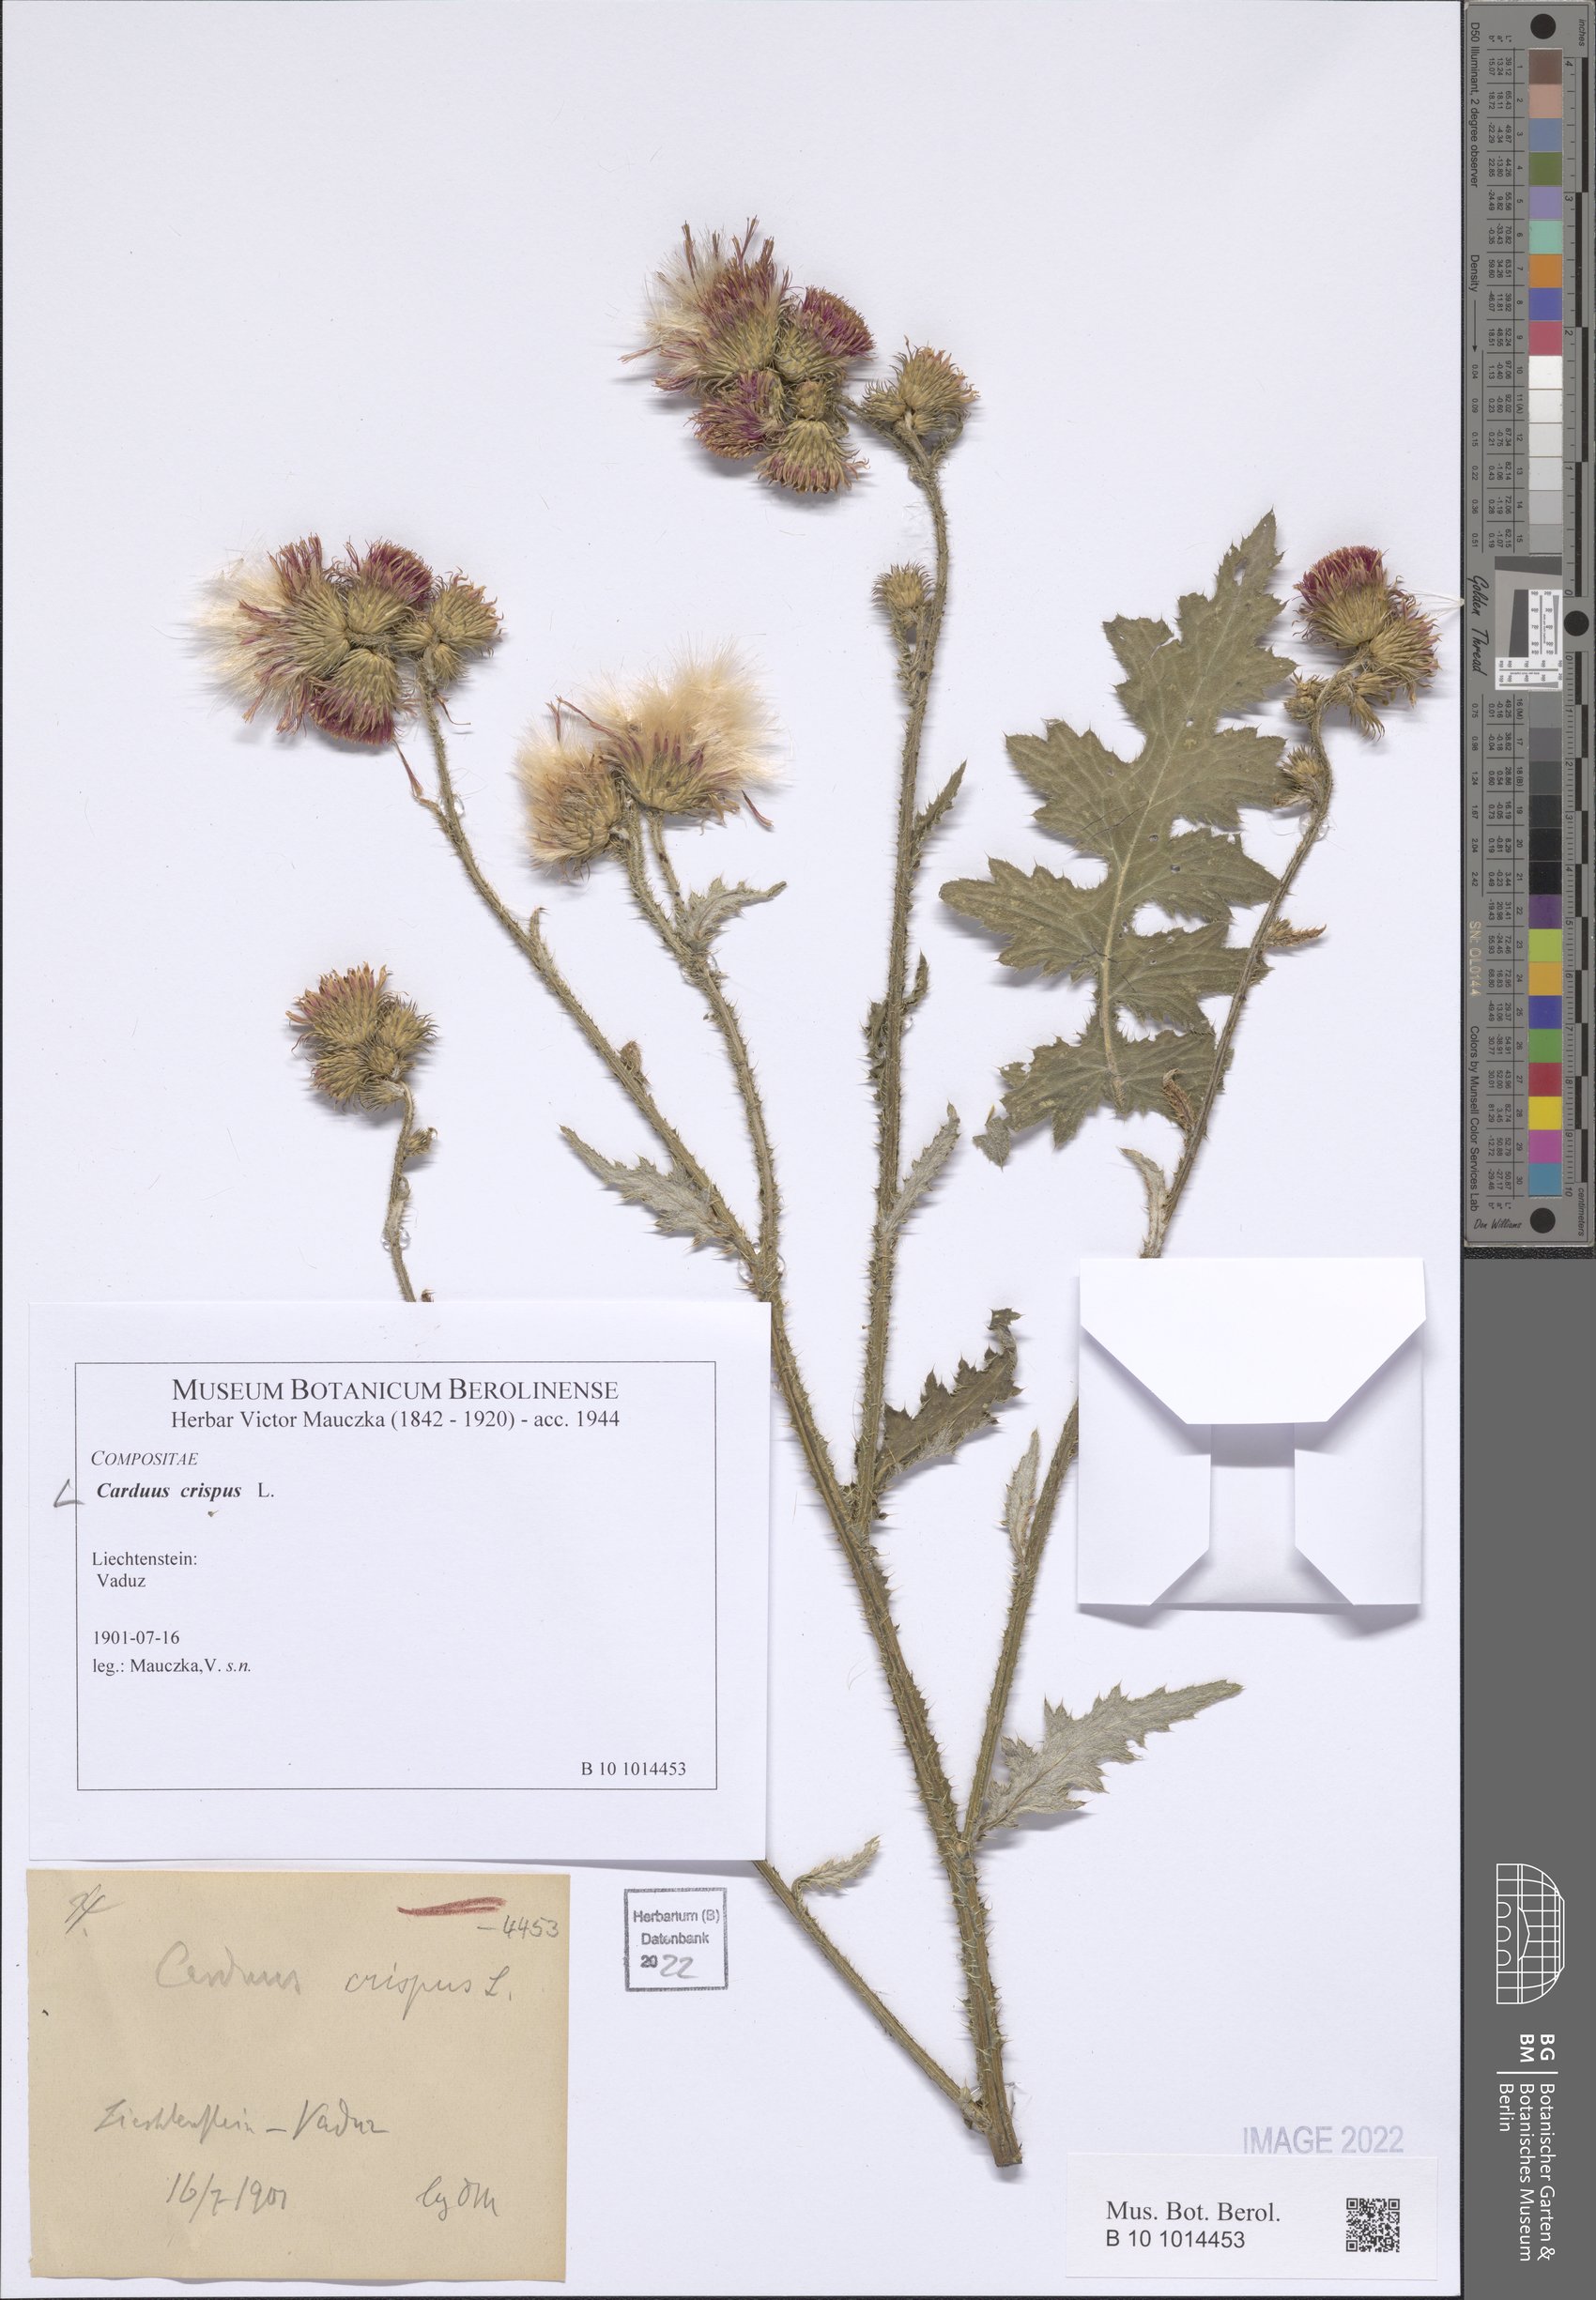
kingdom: Plantae
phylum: Tracheophyta
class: Magnoliopsida
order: Asterales
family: Asteraceae
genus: Carduus
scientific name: Carduus crispus
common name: Welted thistle
